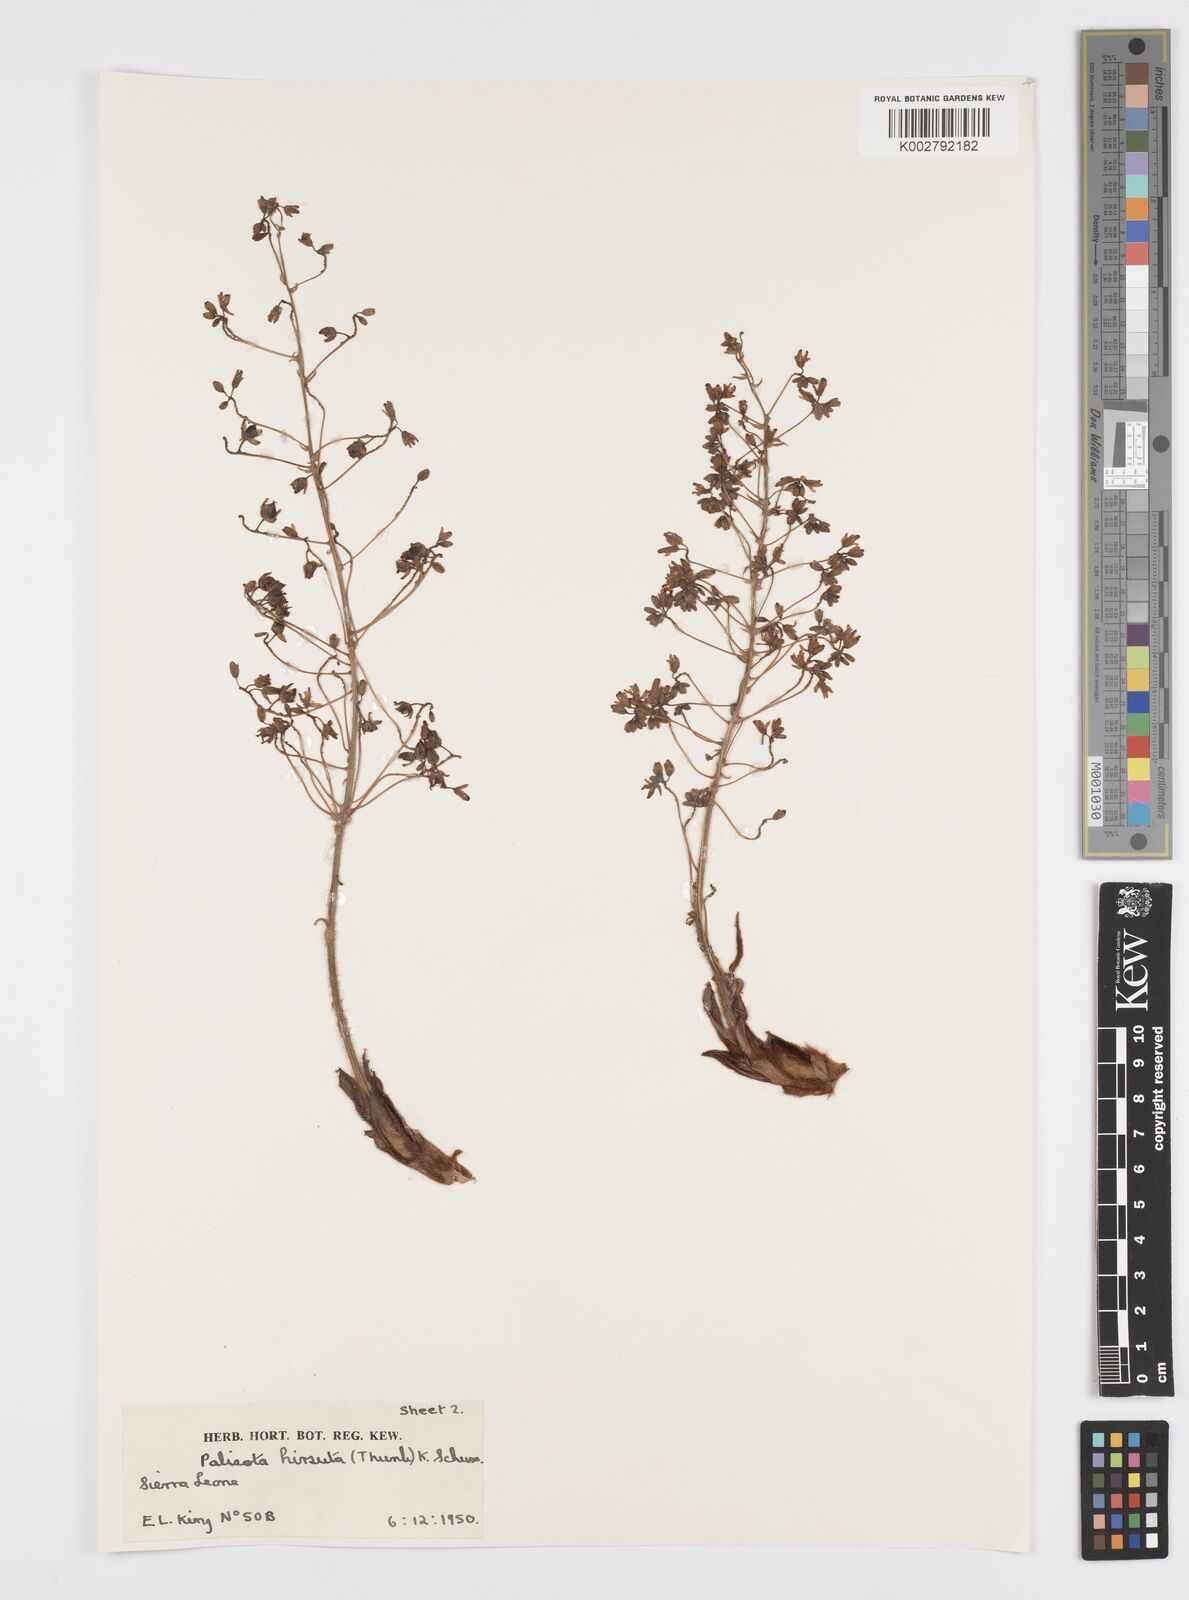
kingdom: Plantae
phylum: Tracheophyta
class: Liliopsida
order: Commelinales
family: Commelinaceae
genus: Palisota
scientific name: Palisota hirsuta
